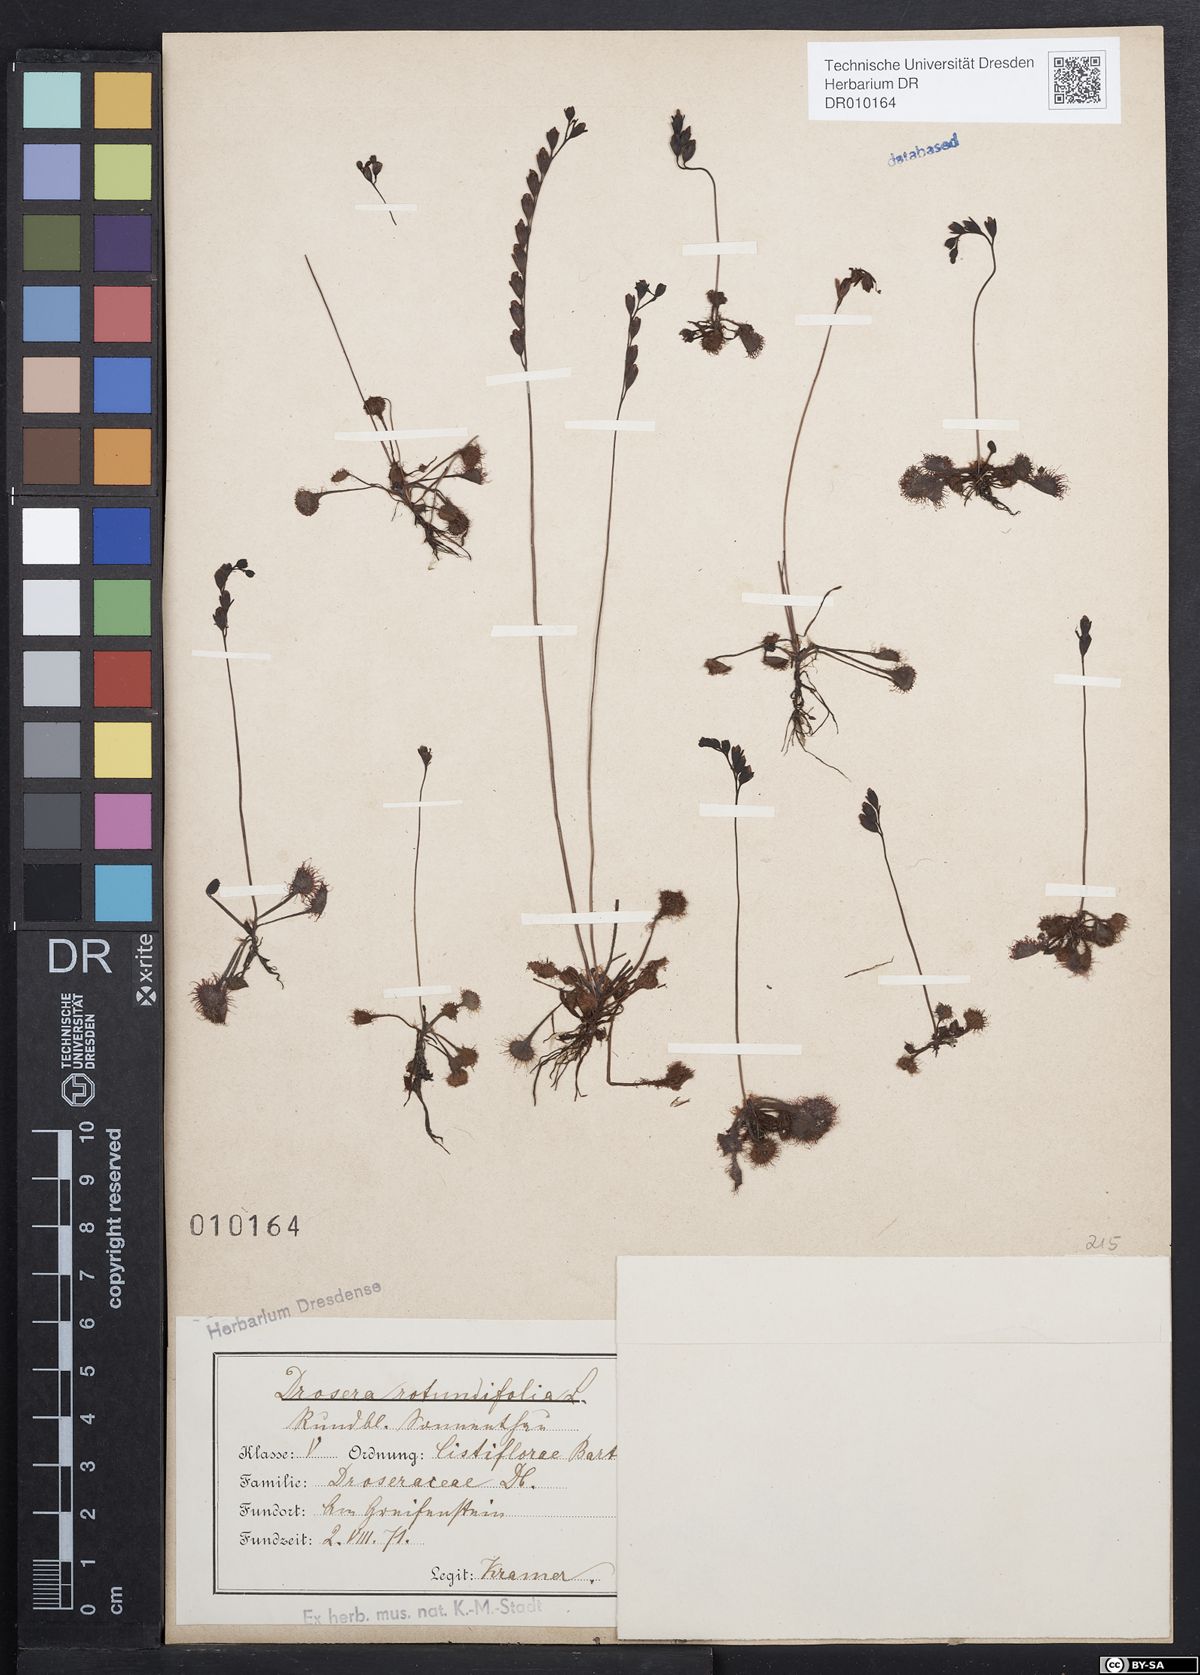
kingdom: Plantae
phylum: Tracheophyta
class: Magnoliopsida
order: Caryophyllales
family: Droseraceae
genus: Drosera
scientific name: Drosera rotundifolia
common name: Round-leaved sundew
